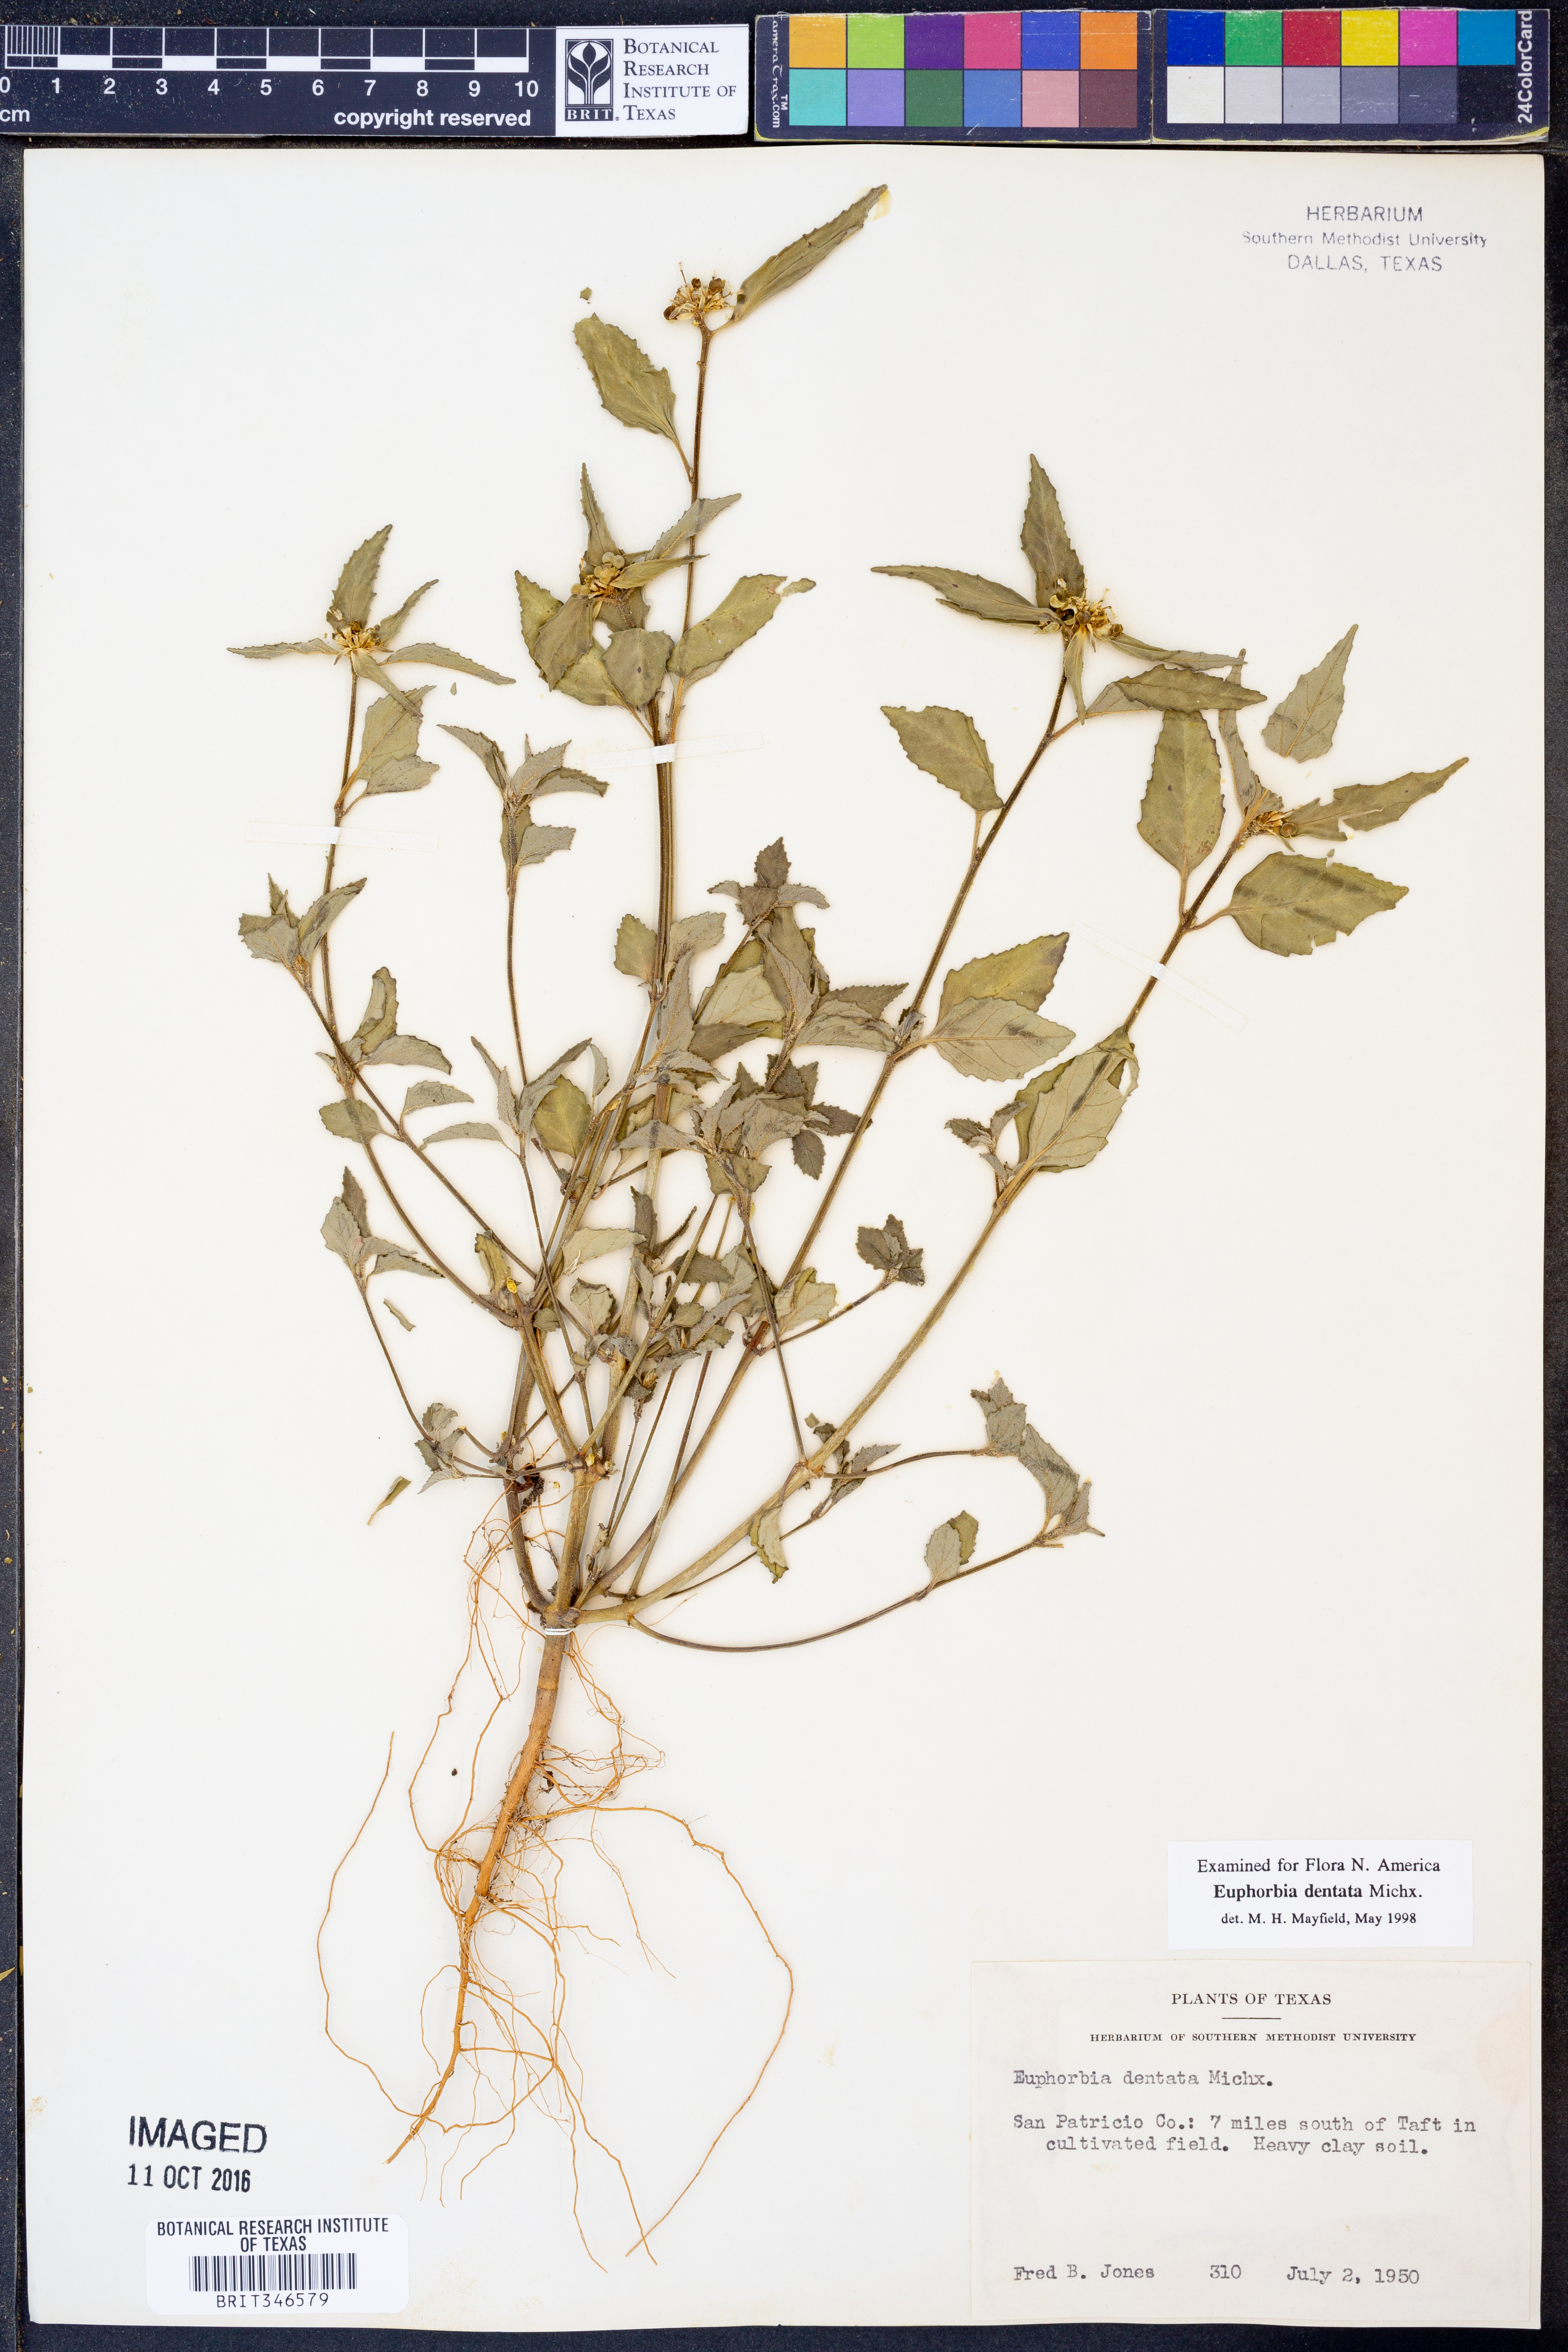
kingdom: Plantae
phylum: Tracheophyta
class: Magnoliopsida
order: Malpighiales
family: Euphorbiaceae
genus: Euphorbia
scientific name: Euphorbia dentata
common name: Dentate spurge
